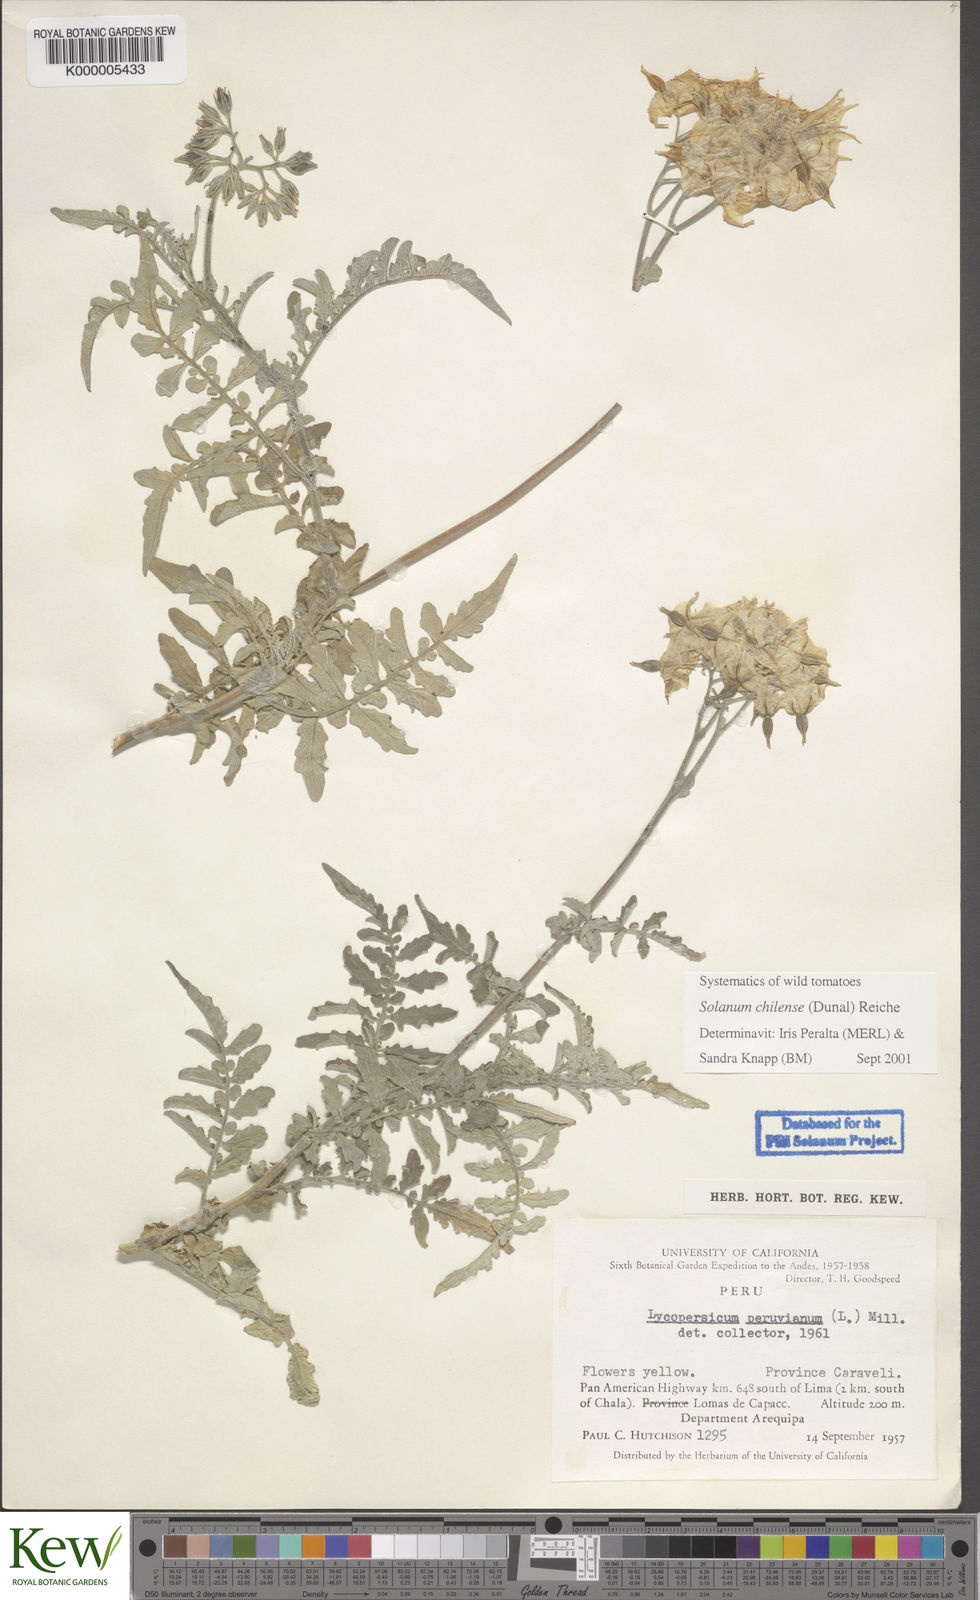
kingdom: Plantae
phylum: Tracheophyta
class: Magnoliopsida
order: Solanales
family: Solanaceae
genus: Solanum
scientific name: Solanum chilense
